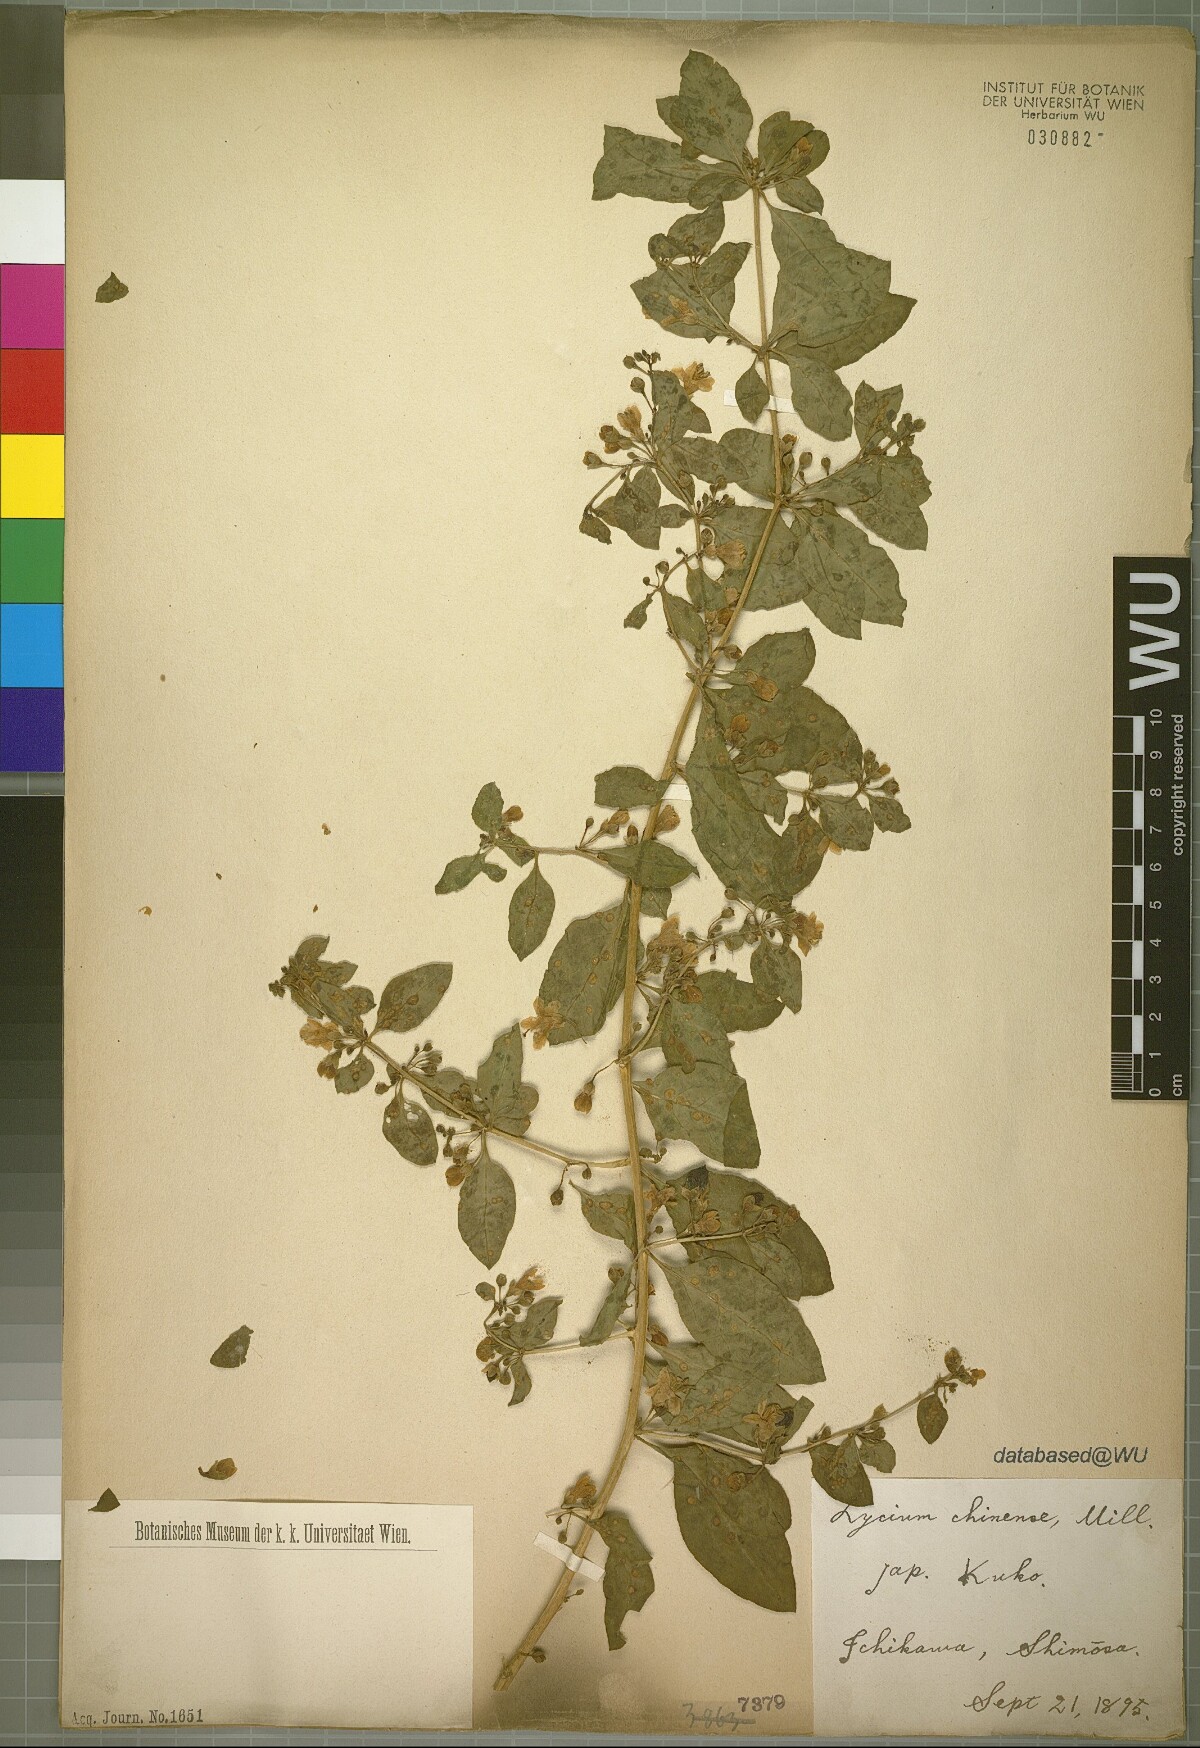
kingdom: Plantae
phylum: Tracheophyta
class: Magnoliopsida
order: Solanales
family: Solanaceae
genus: Lycium
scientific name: Lycium chinense
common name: Chinese teaplant
